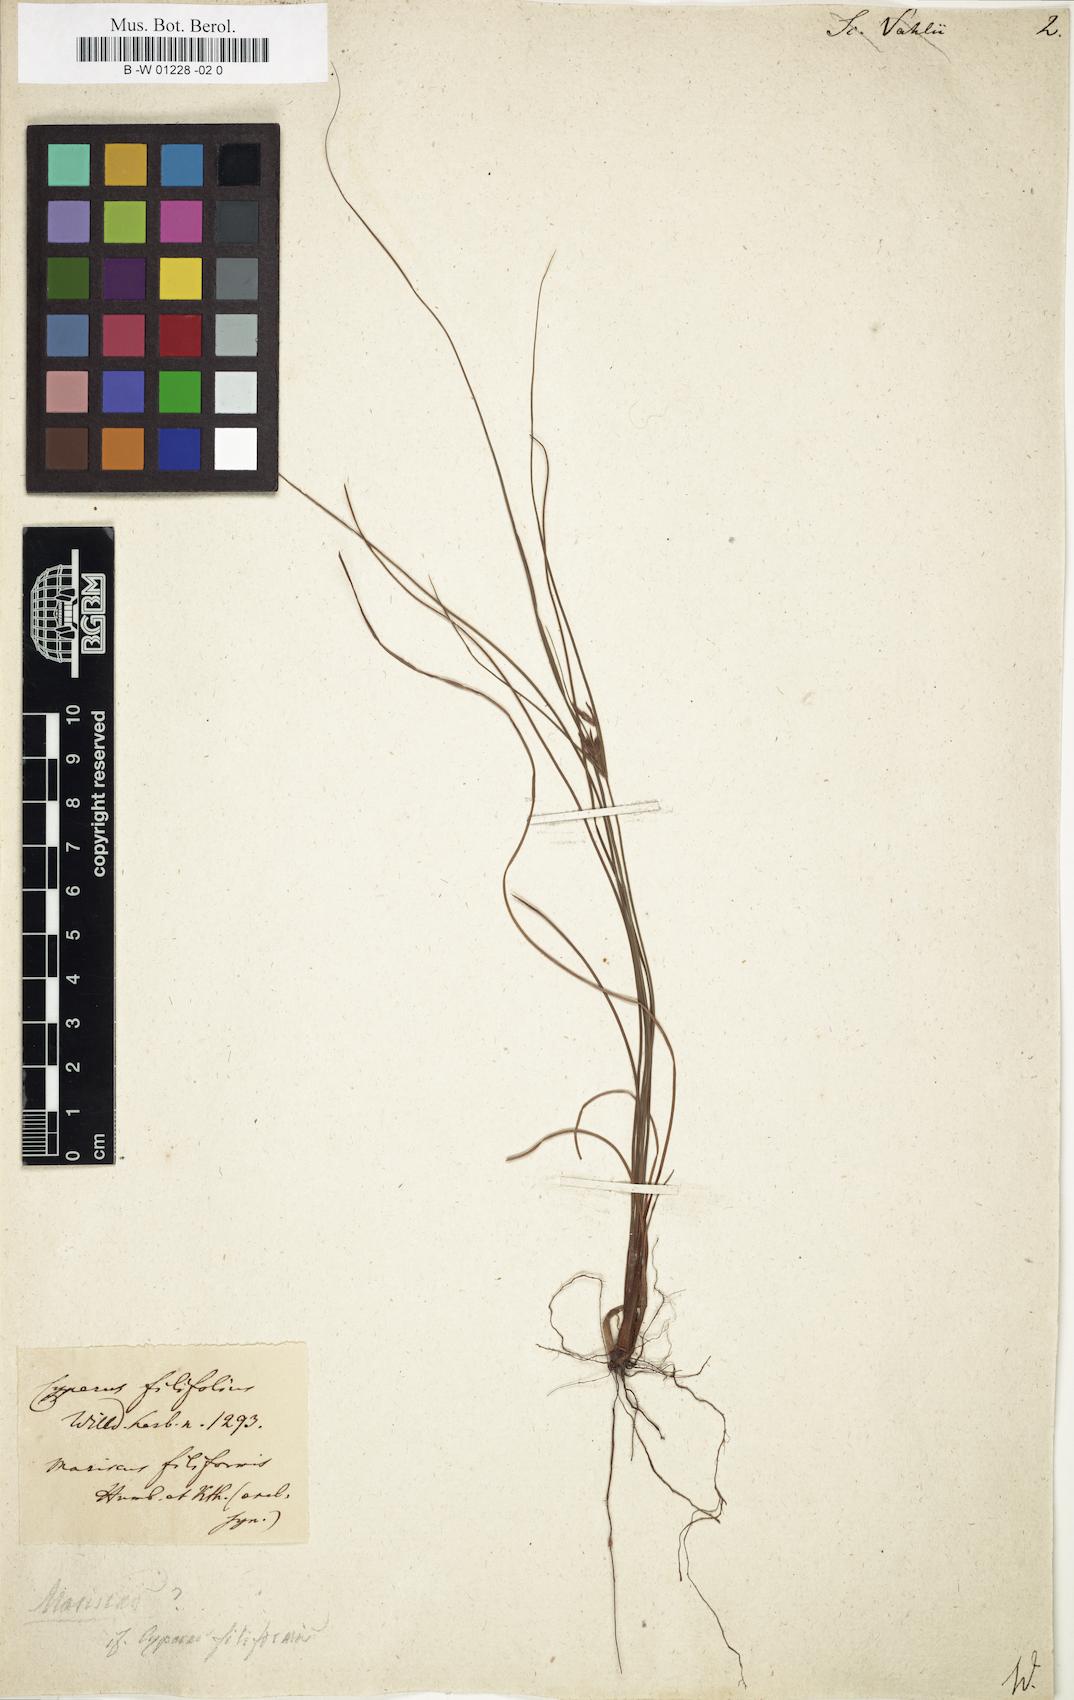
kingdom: Plantae
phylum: Tracheophyta
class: Liliopsida
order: Poales
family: Cyperaceae
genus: Fimbristylis
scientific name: Fimbristylis vahlii
